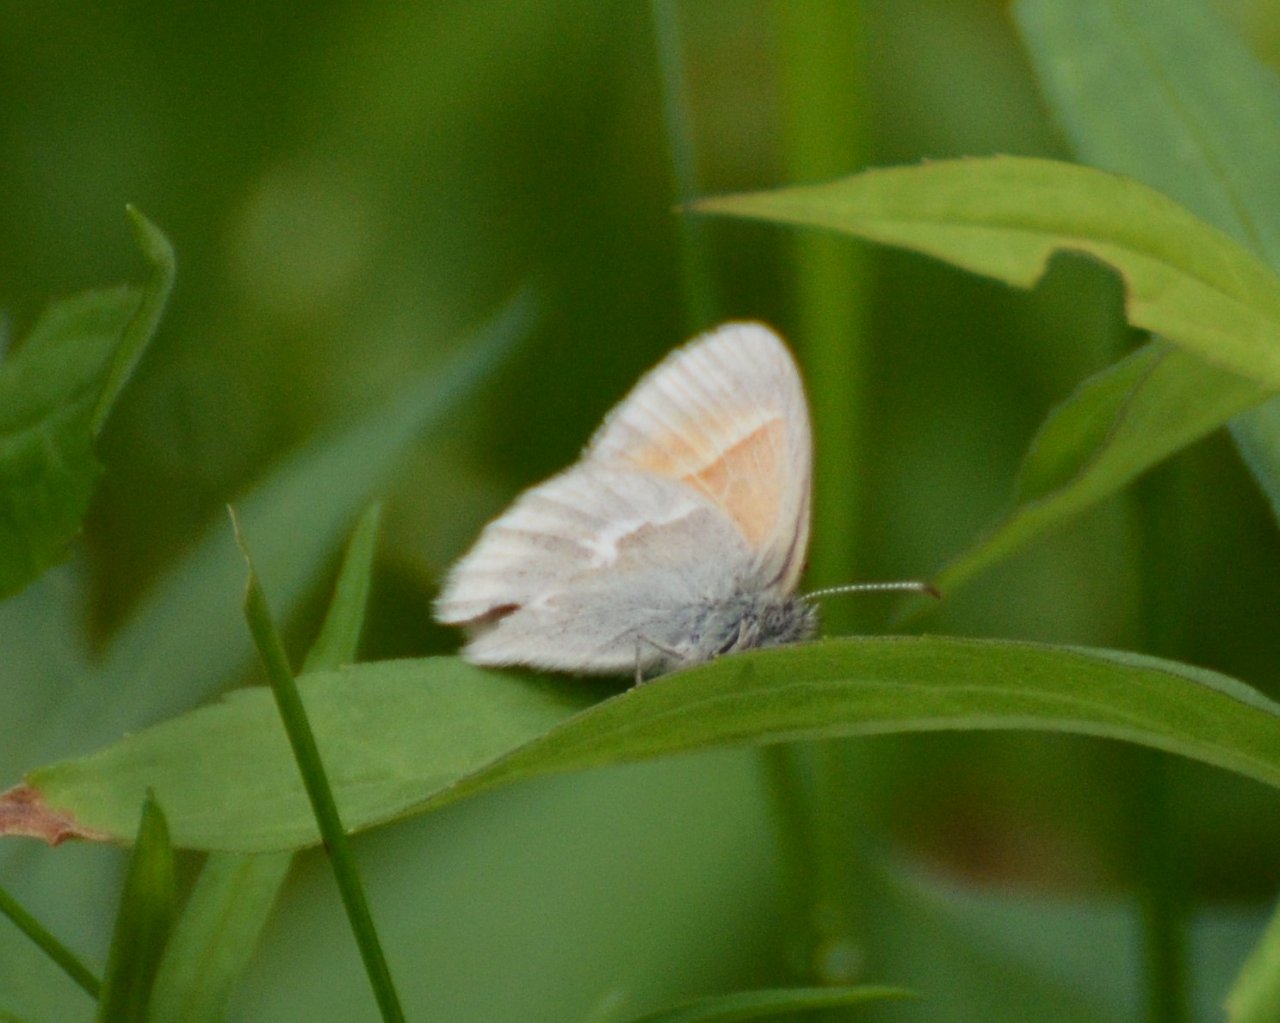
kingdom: Animalia
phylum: Arthropoda
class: Insecta
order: Lepidoptera
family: Nymphalidae
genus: Coenonympha
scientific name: Coenonympha tullia
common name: Large Heath
